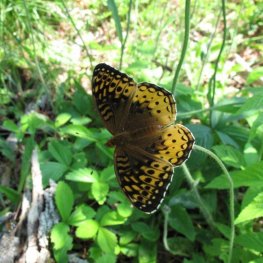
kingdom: Animalia
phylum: Arthropoda
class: Insecta
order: Lepidoptera
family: Nymphalidae
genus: Speyeria
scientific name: Speyeria cybele
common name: Great Spangled Fritillary
